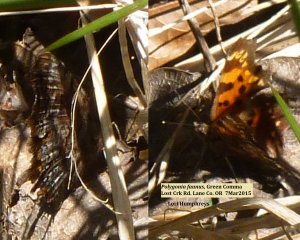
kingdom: Animalia
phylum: Arthropoda
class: Insecta
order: Lepidoptera
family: Nymphalidae
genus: Polygonia
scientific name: Polygonia faunus
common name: Green Comma
